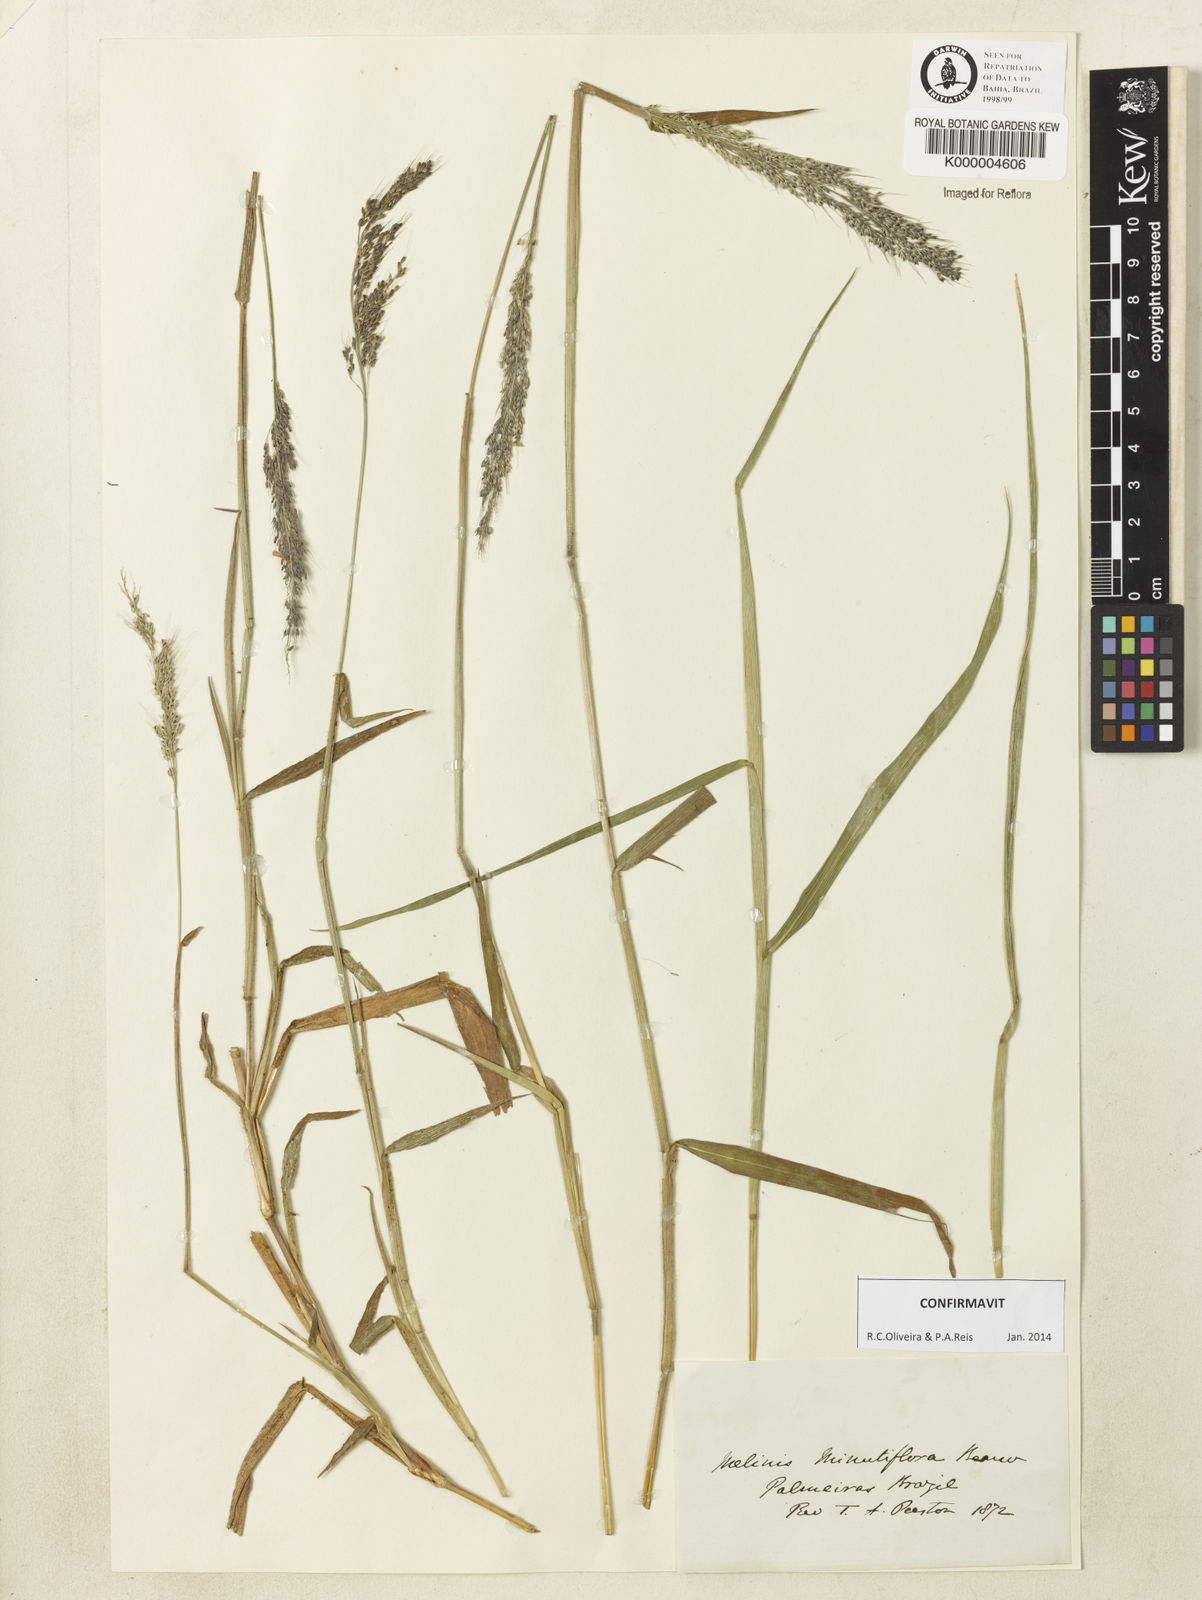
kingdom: Plantae
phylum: Tracheophyta
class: Liliopsida
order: Poales
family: Poaceae
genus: Melinis
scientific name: Melinis minutiflora
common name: Molassesgrass
